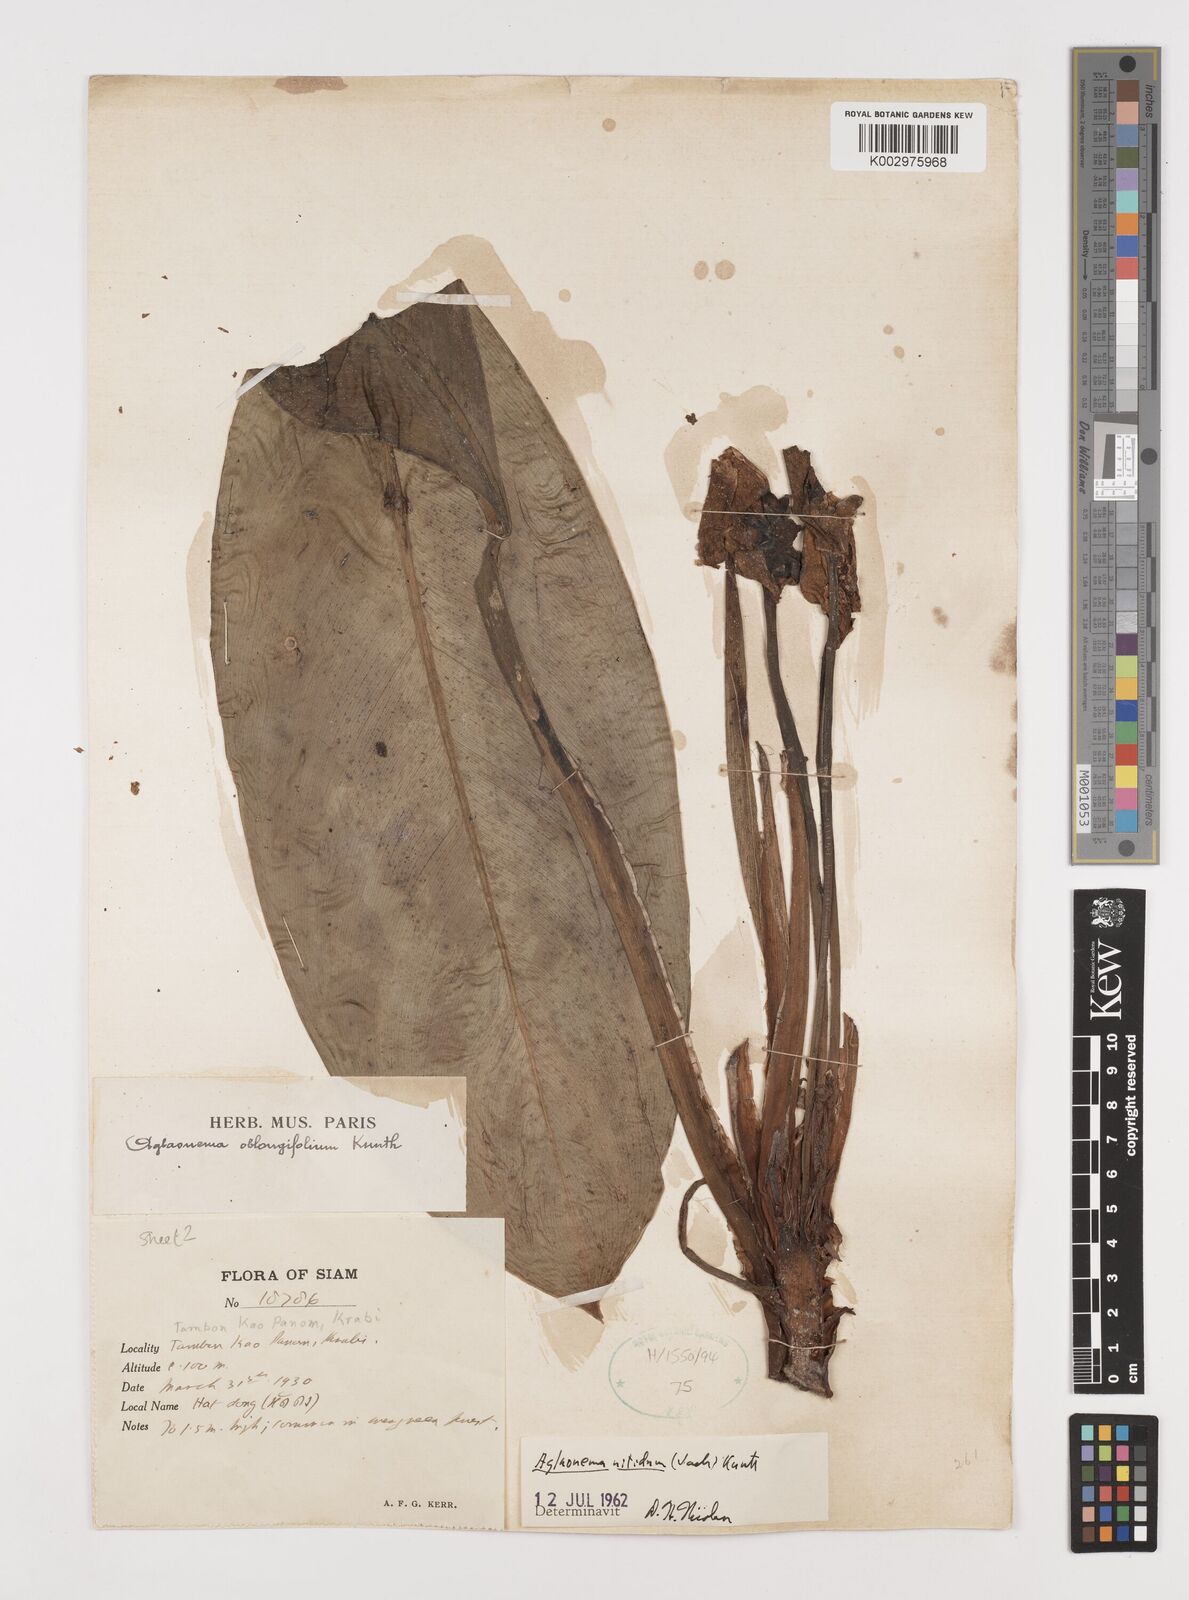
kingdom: Plantae
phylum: Tracheophyta
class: Liliopsida
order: Alismatales
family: Araceae
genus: Aglaonema
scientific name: Aglaonema nitidum
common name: Aglaonema aroid
